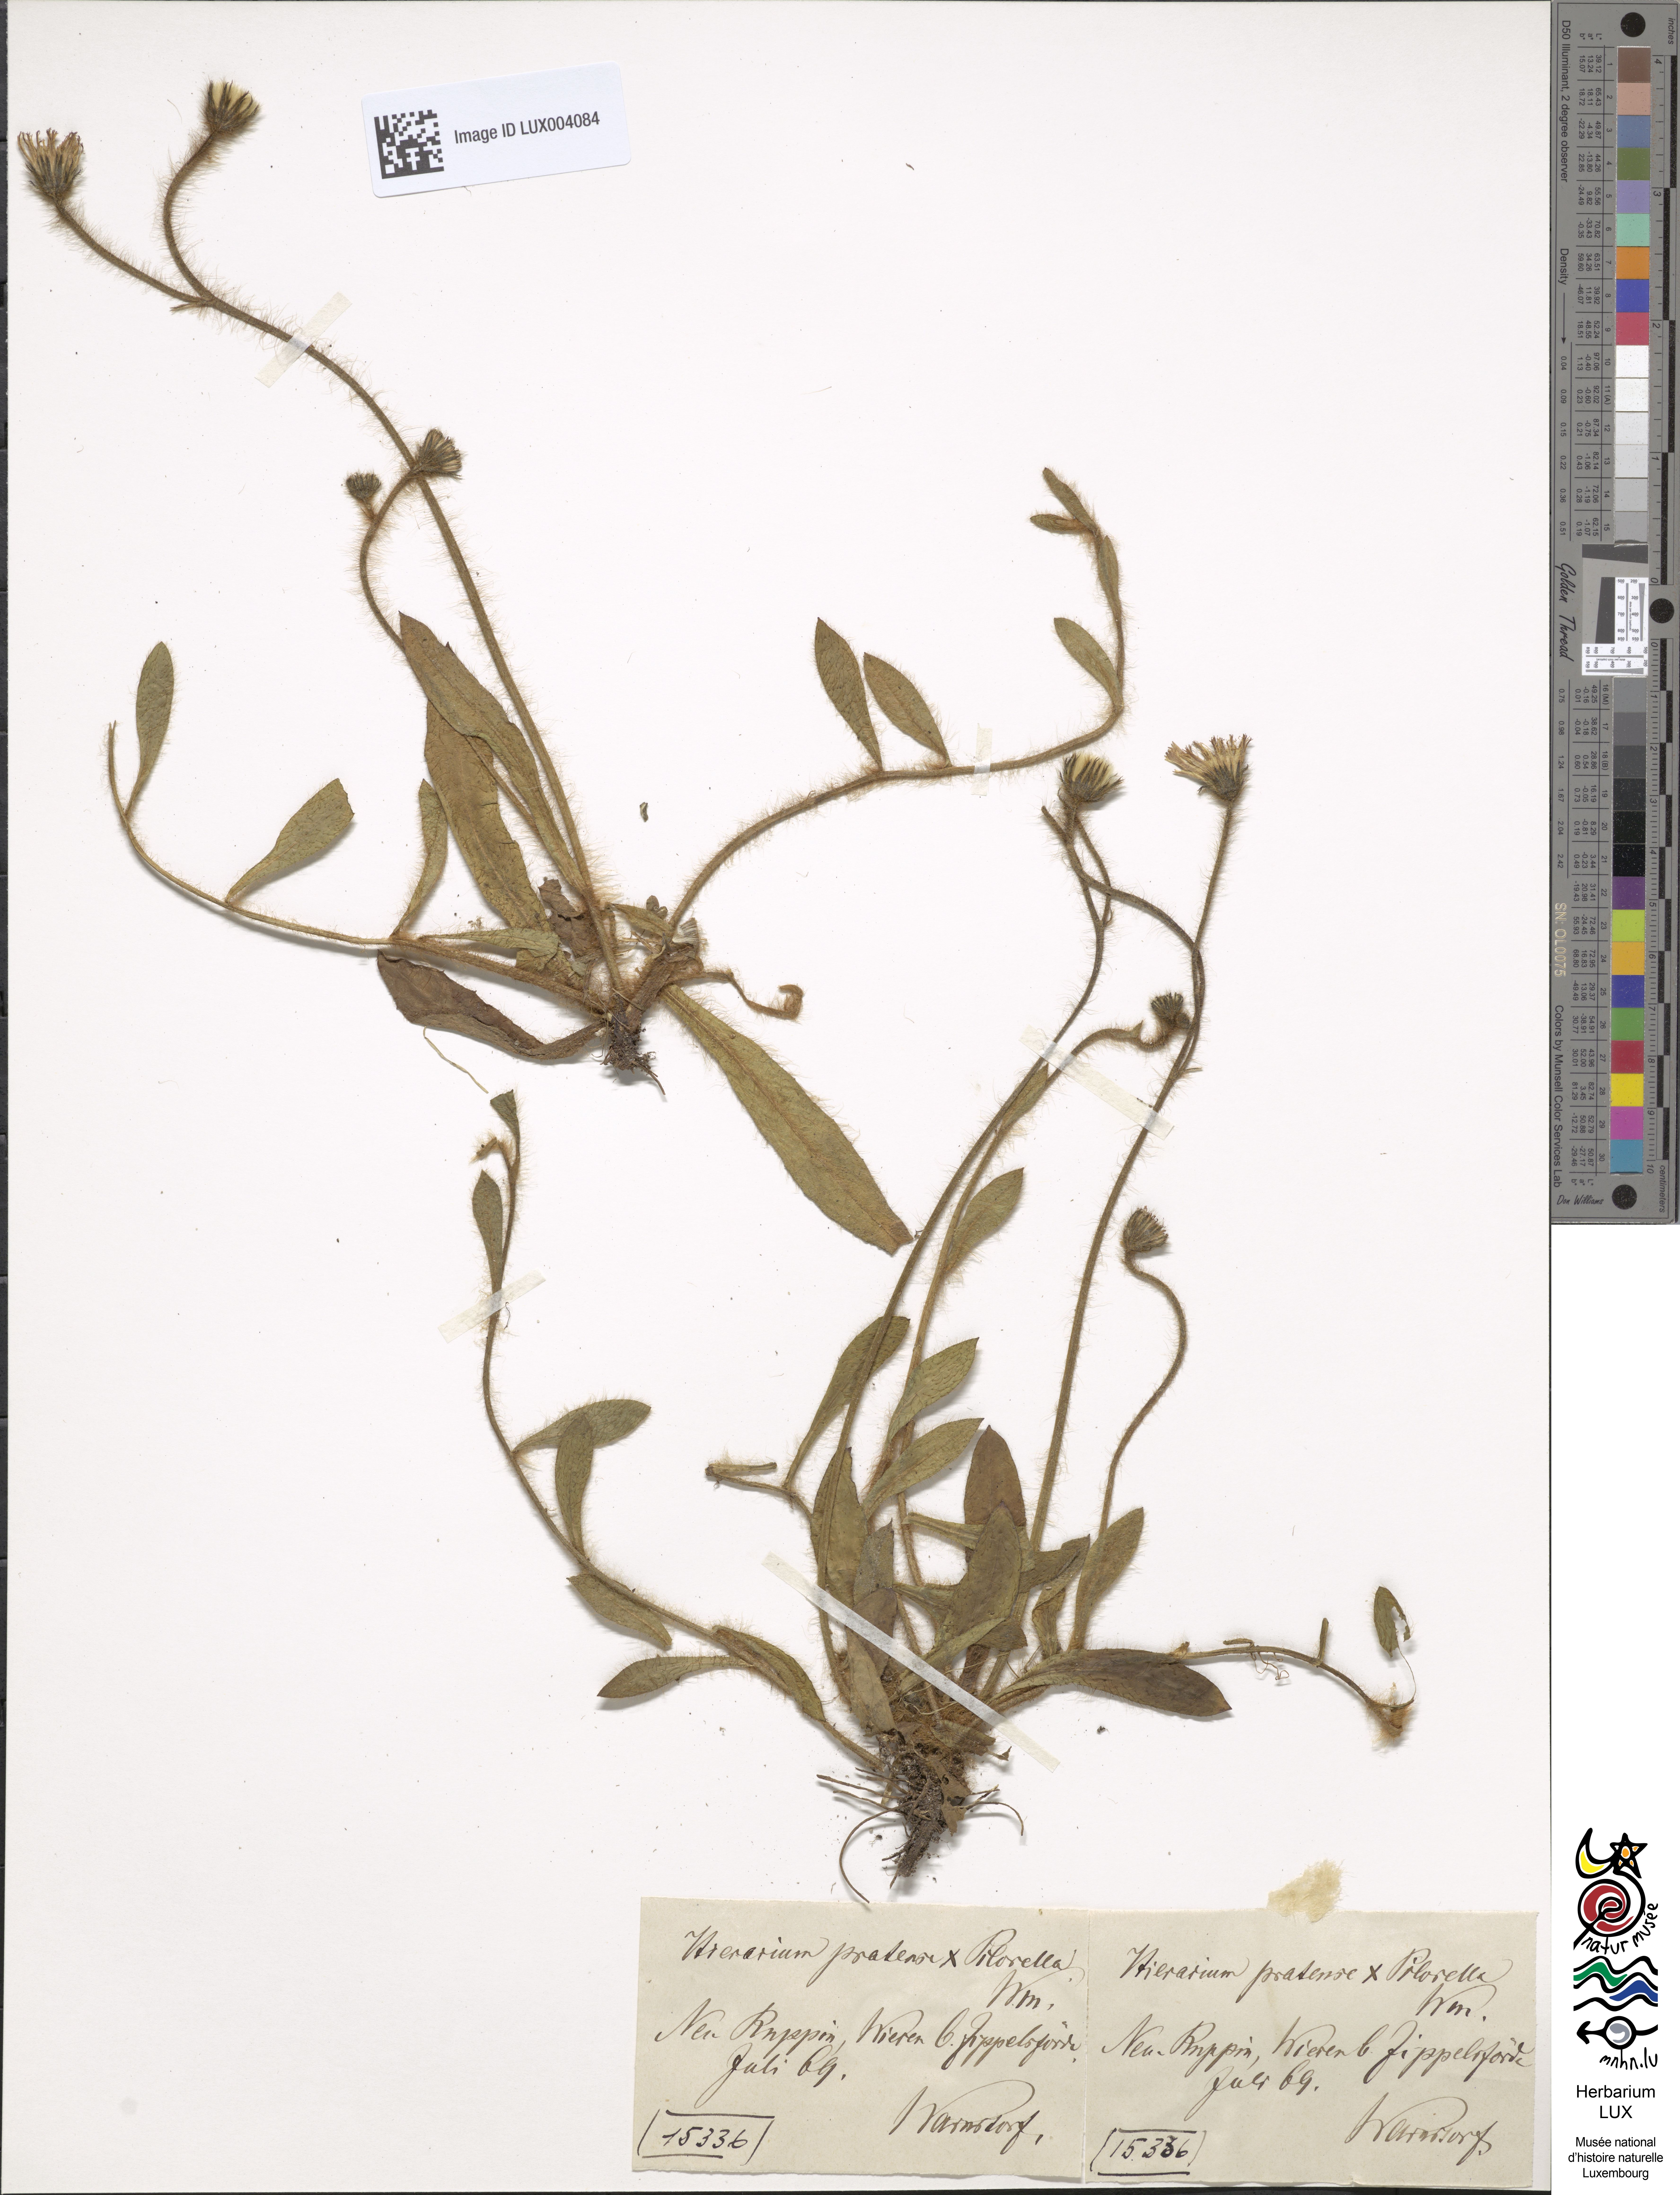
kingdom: Plantae
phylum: Tracheophyta
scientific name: Tracheophyta
